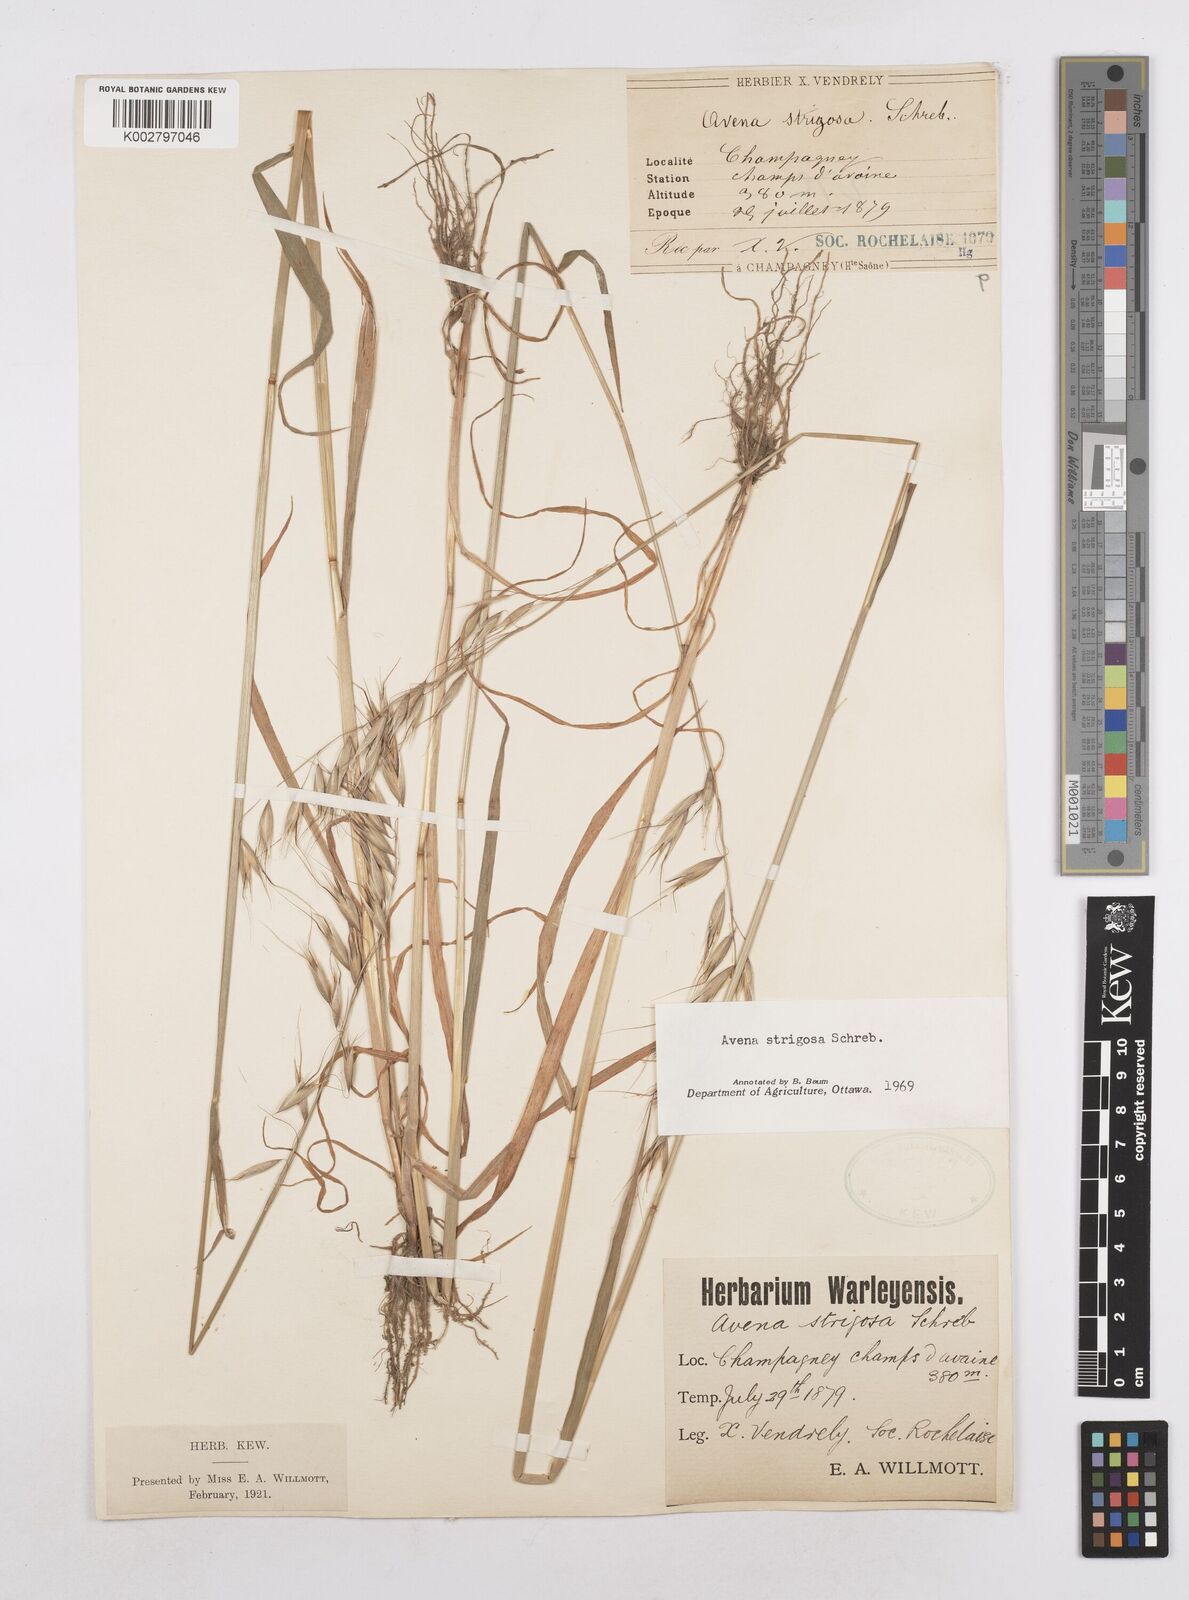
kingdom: Plantae
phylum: Tracheophyta
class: Liliopsida
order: Poales
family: Poaceae
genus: Avena
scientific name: Avena strigosa
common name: Bristle oat
